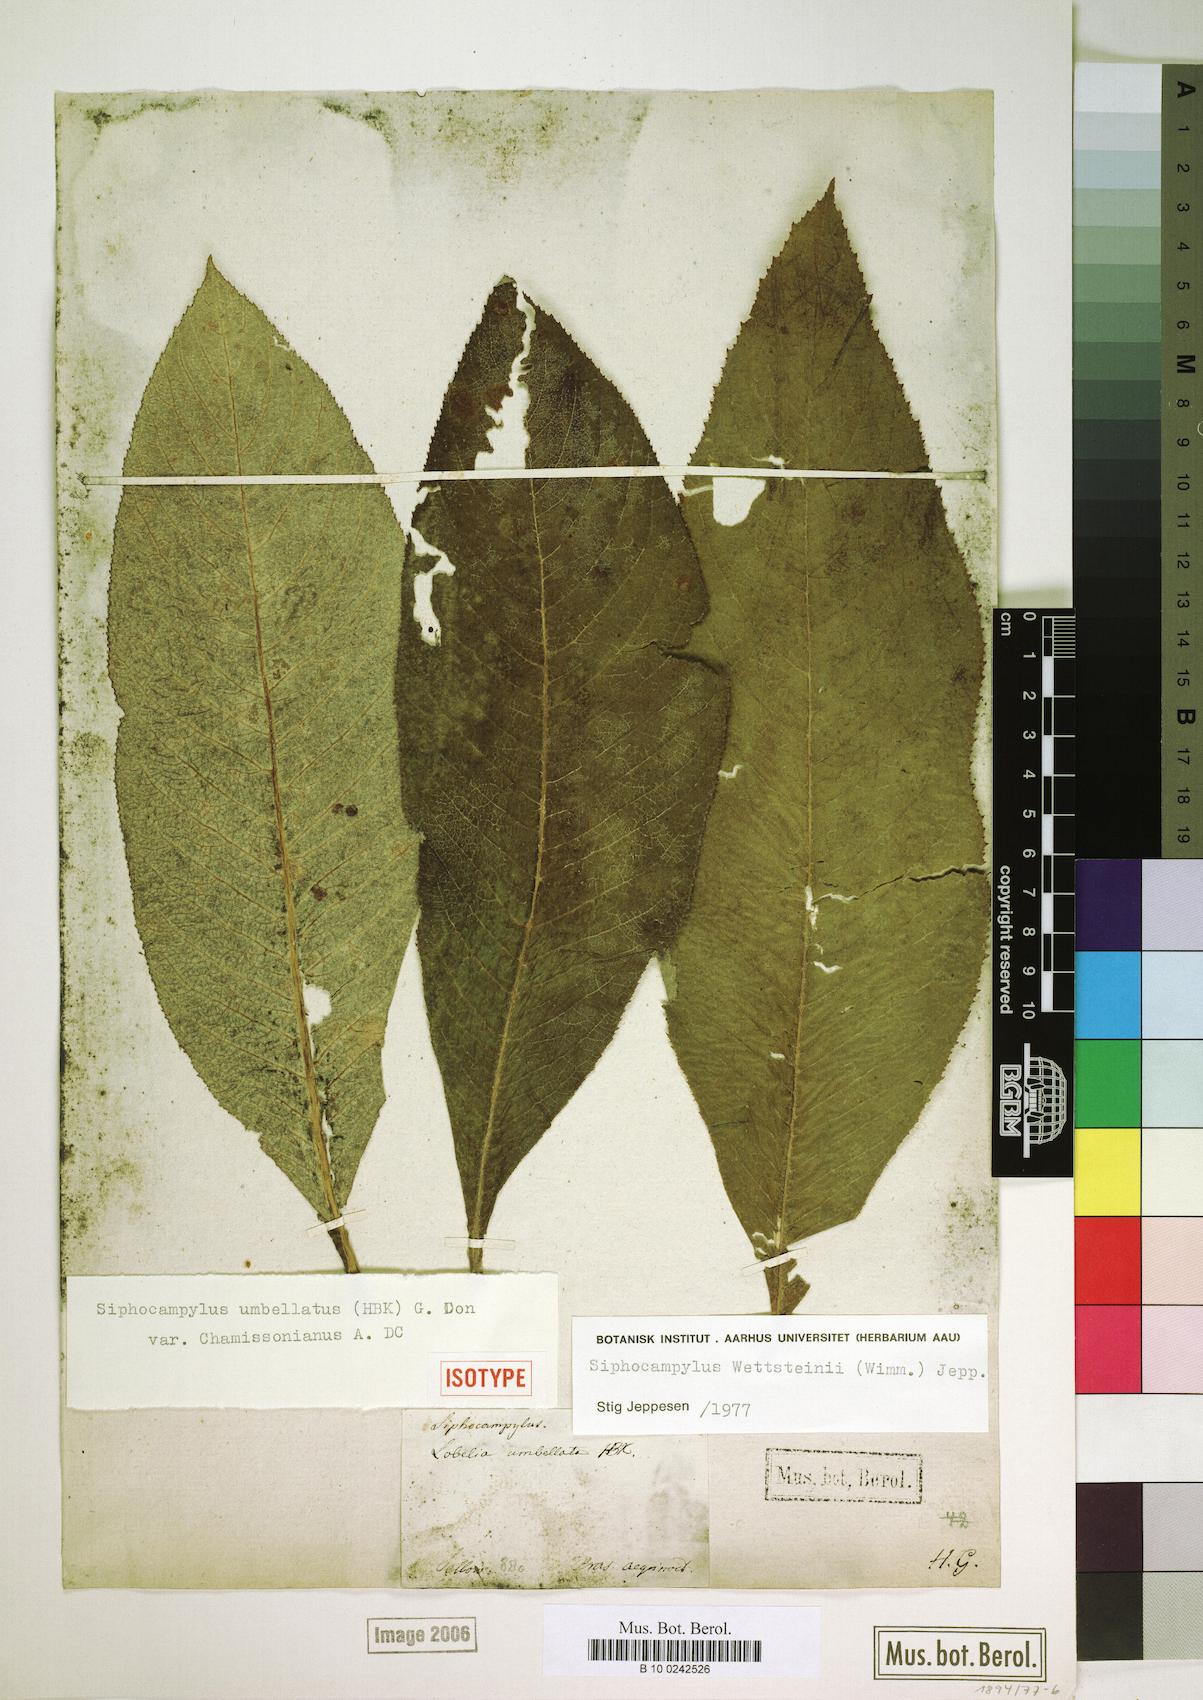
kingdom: Plantae
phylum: Tracheophyta
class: Magnoliopsida
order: Asterales
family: Campanulaceae
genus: Siphocampylus
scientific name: Siphocampylus
